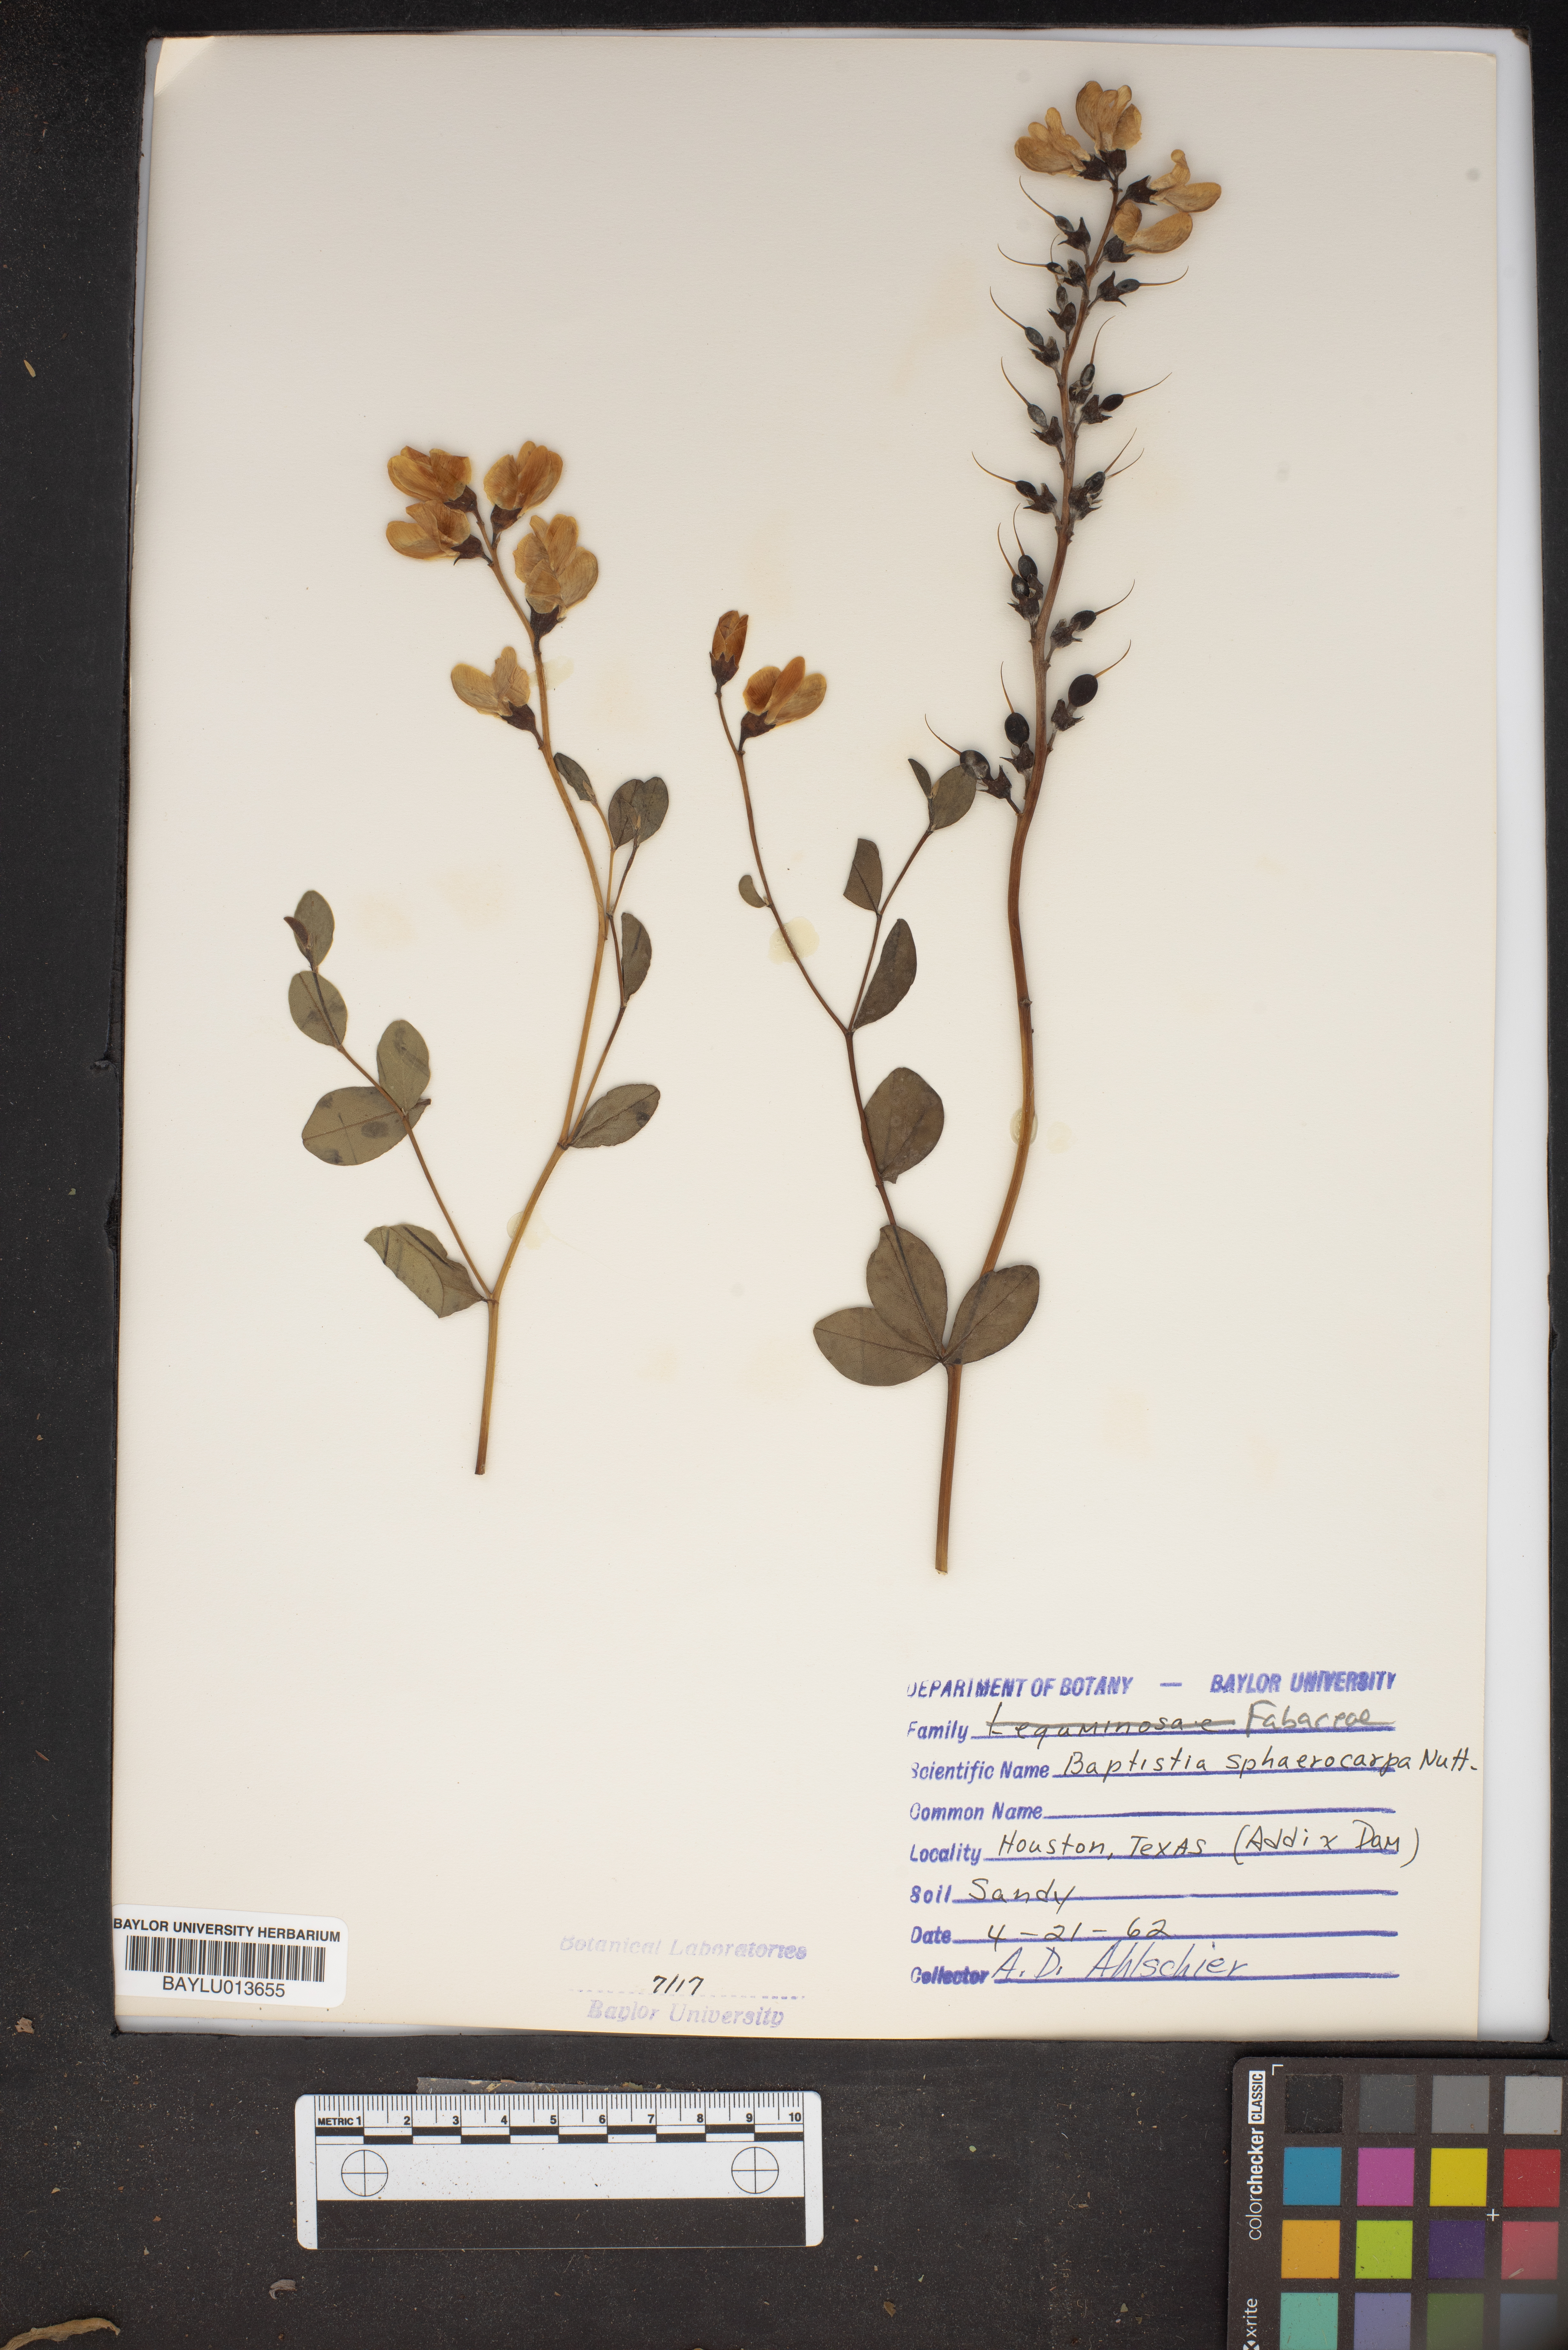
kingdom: Plantae
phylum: Tracheophyta
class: Magnoliopsida
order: Fabales
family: Fabaceae
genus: Baptisia
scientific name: Baptisia sphaerocarpa
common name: Round wild indigo
